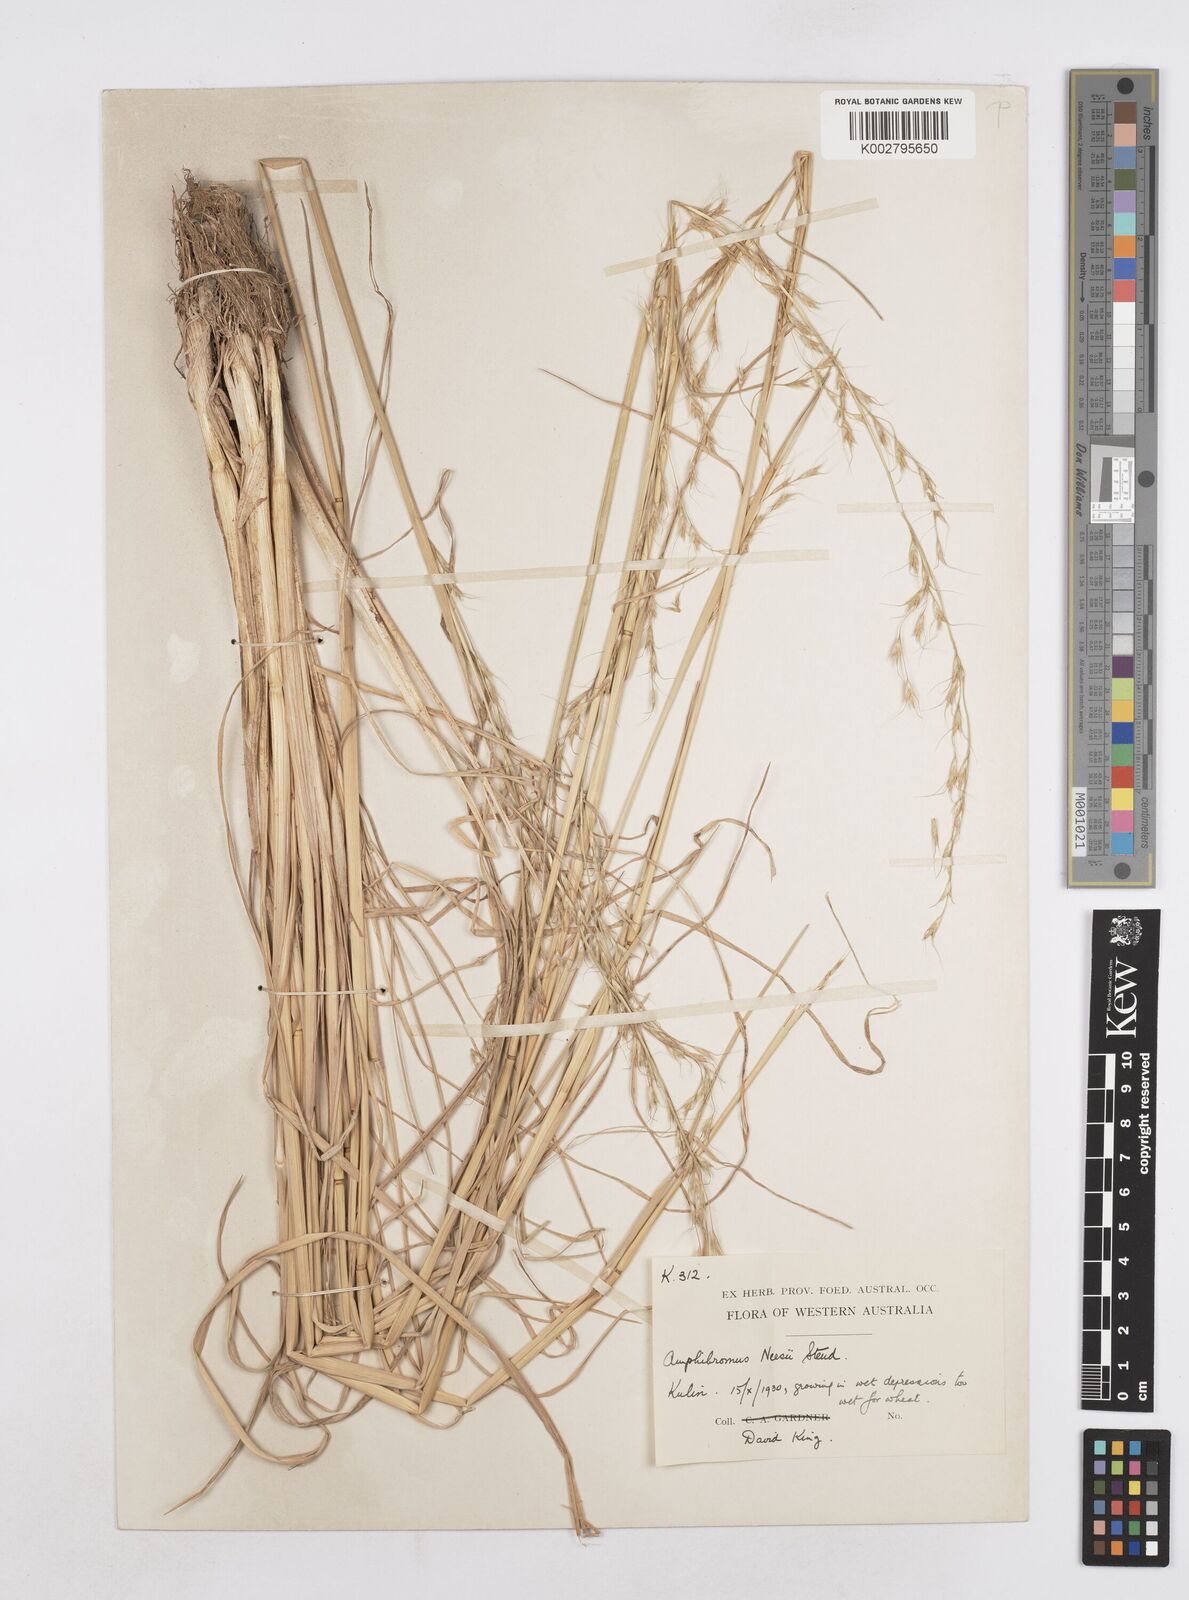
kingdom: Plantae
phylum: Tracheophyta
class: Liliopsida
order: Poales
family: Poaceae
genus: Amphibromus
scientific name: Amphibromus neesii
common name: Australian wallaby grass
